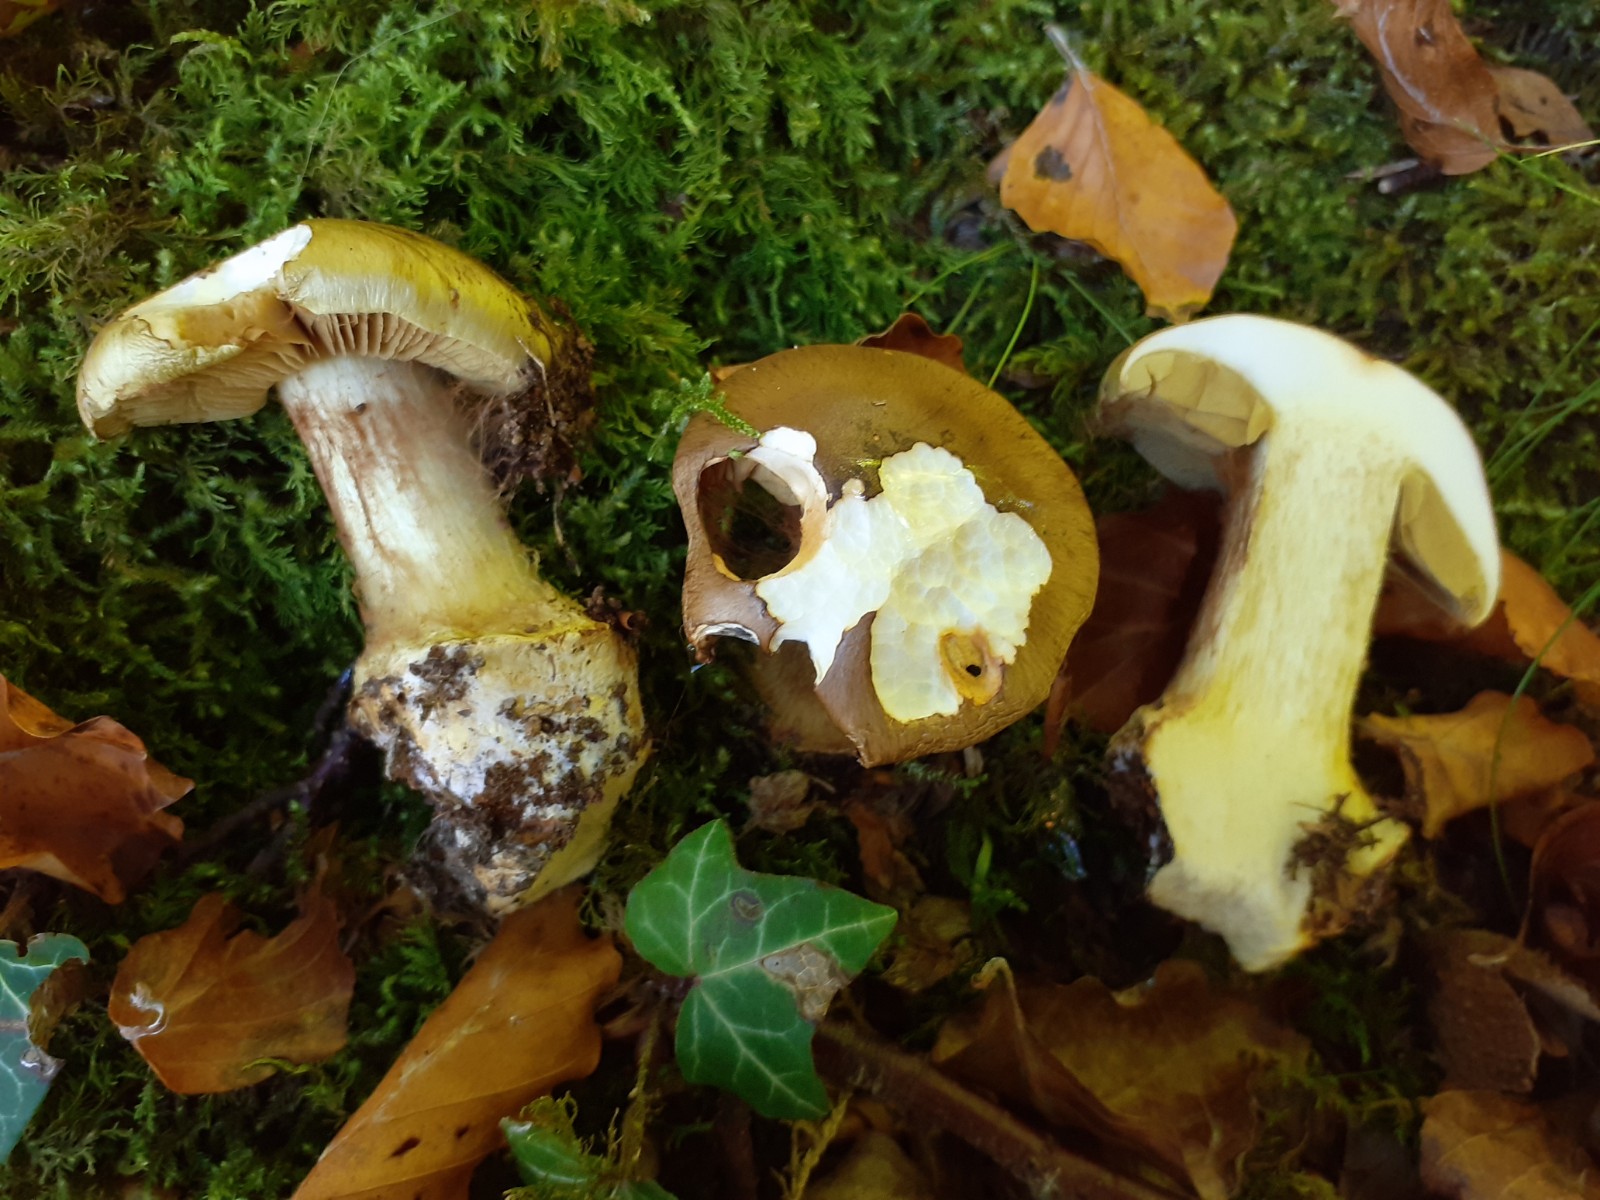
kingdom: Fungi
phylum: Basidiomycota
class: Agaricomycetes
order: Agaricales
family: Cortinariaceae
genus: Calonarius
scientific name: Calonarius xanthochlorus
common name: gulgrøn slørhat
